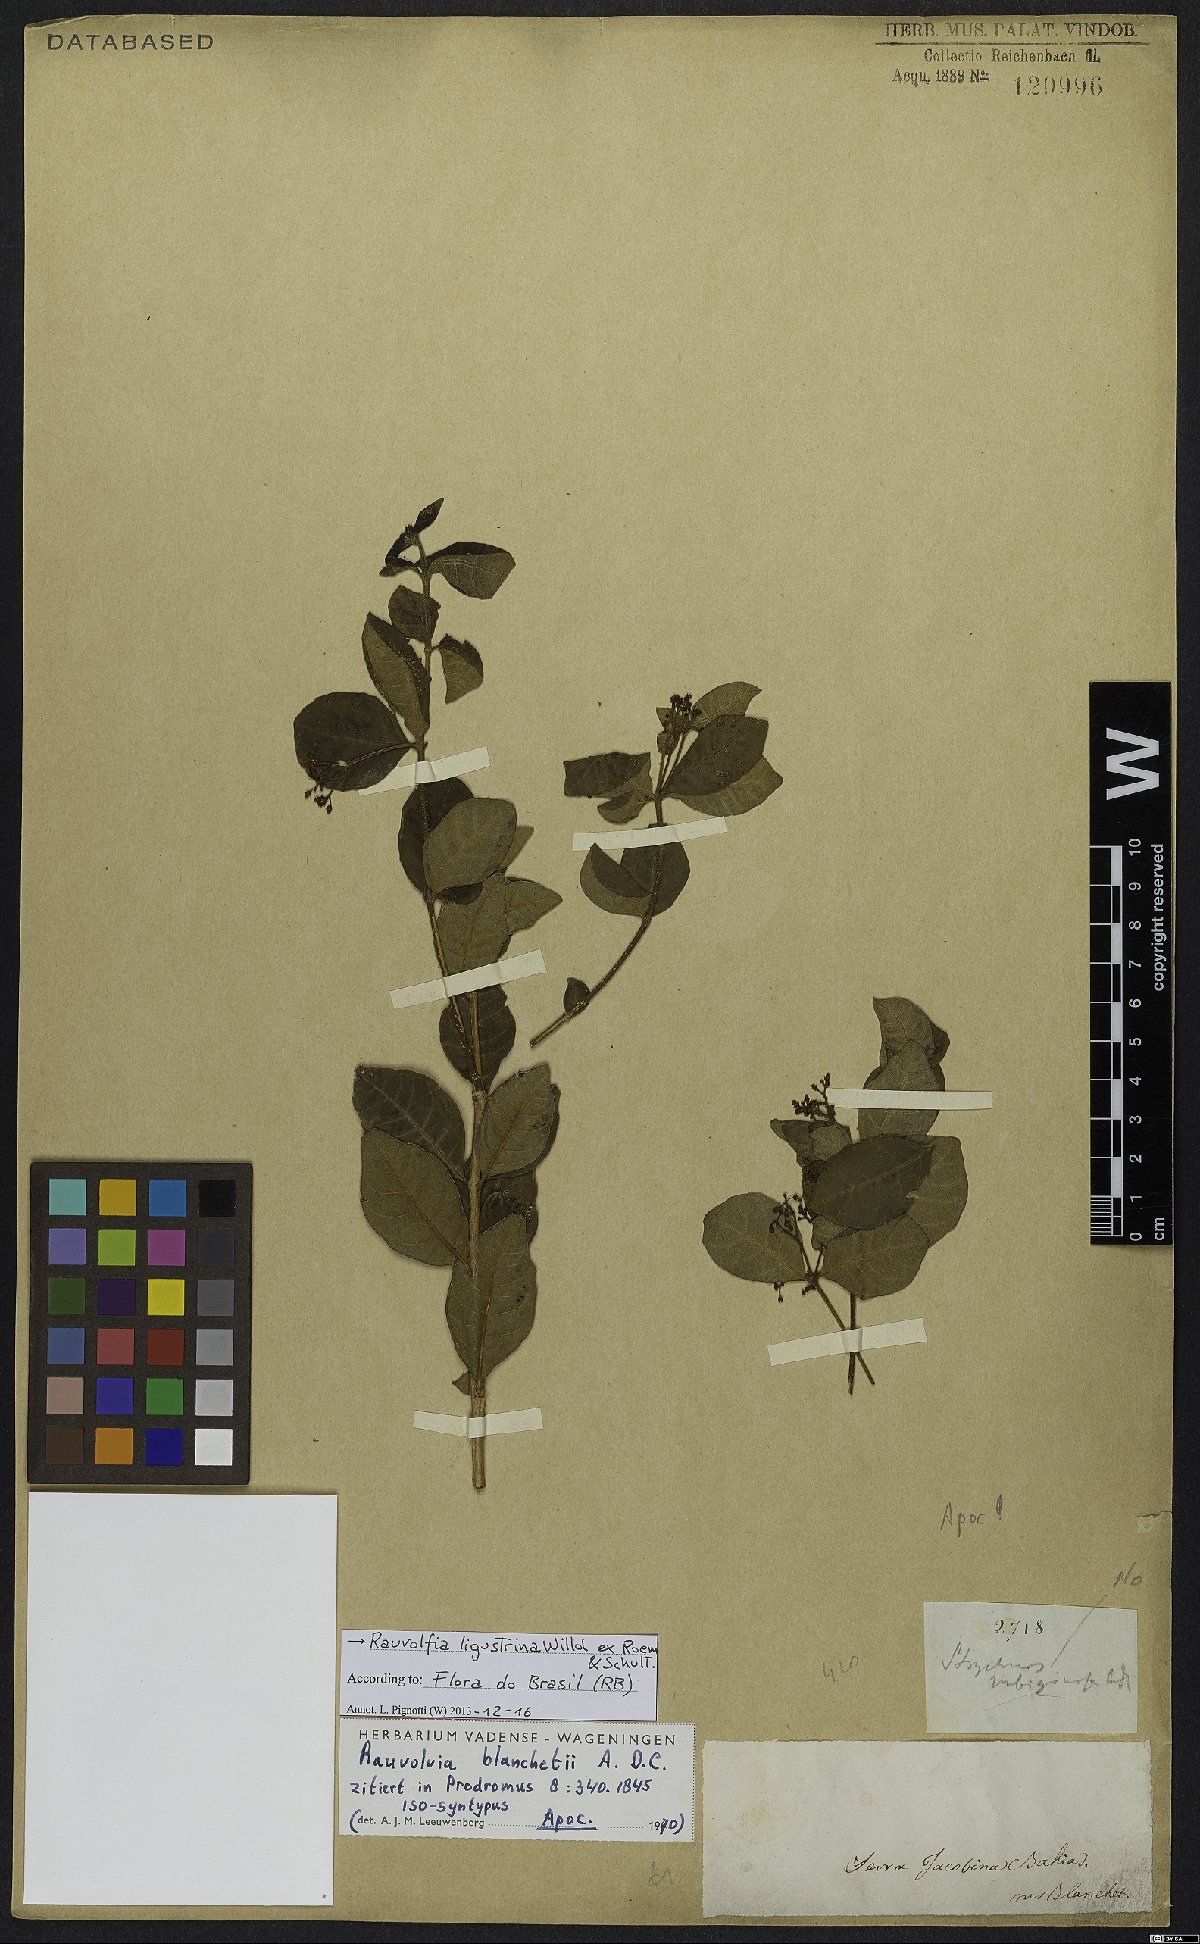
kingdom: Plantae
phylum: Tracheophyta
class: Magnoliopsida
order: Gentianales
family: Apocynaceae
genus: Rauvolfia
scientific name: Rauvolfia ligustrina
